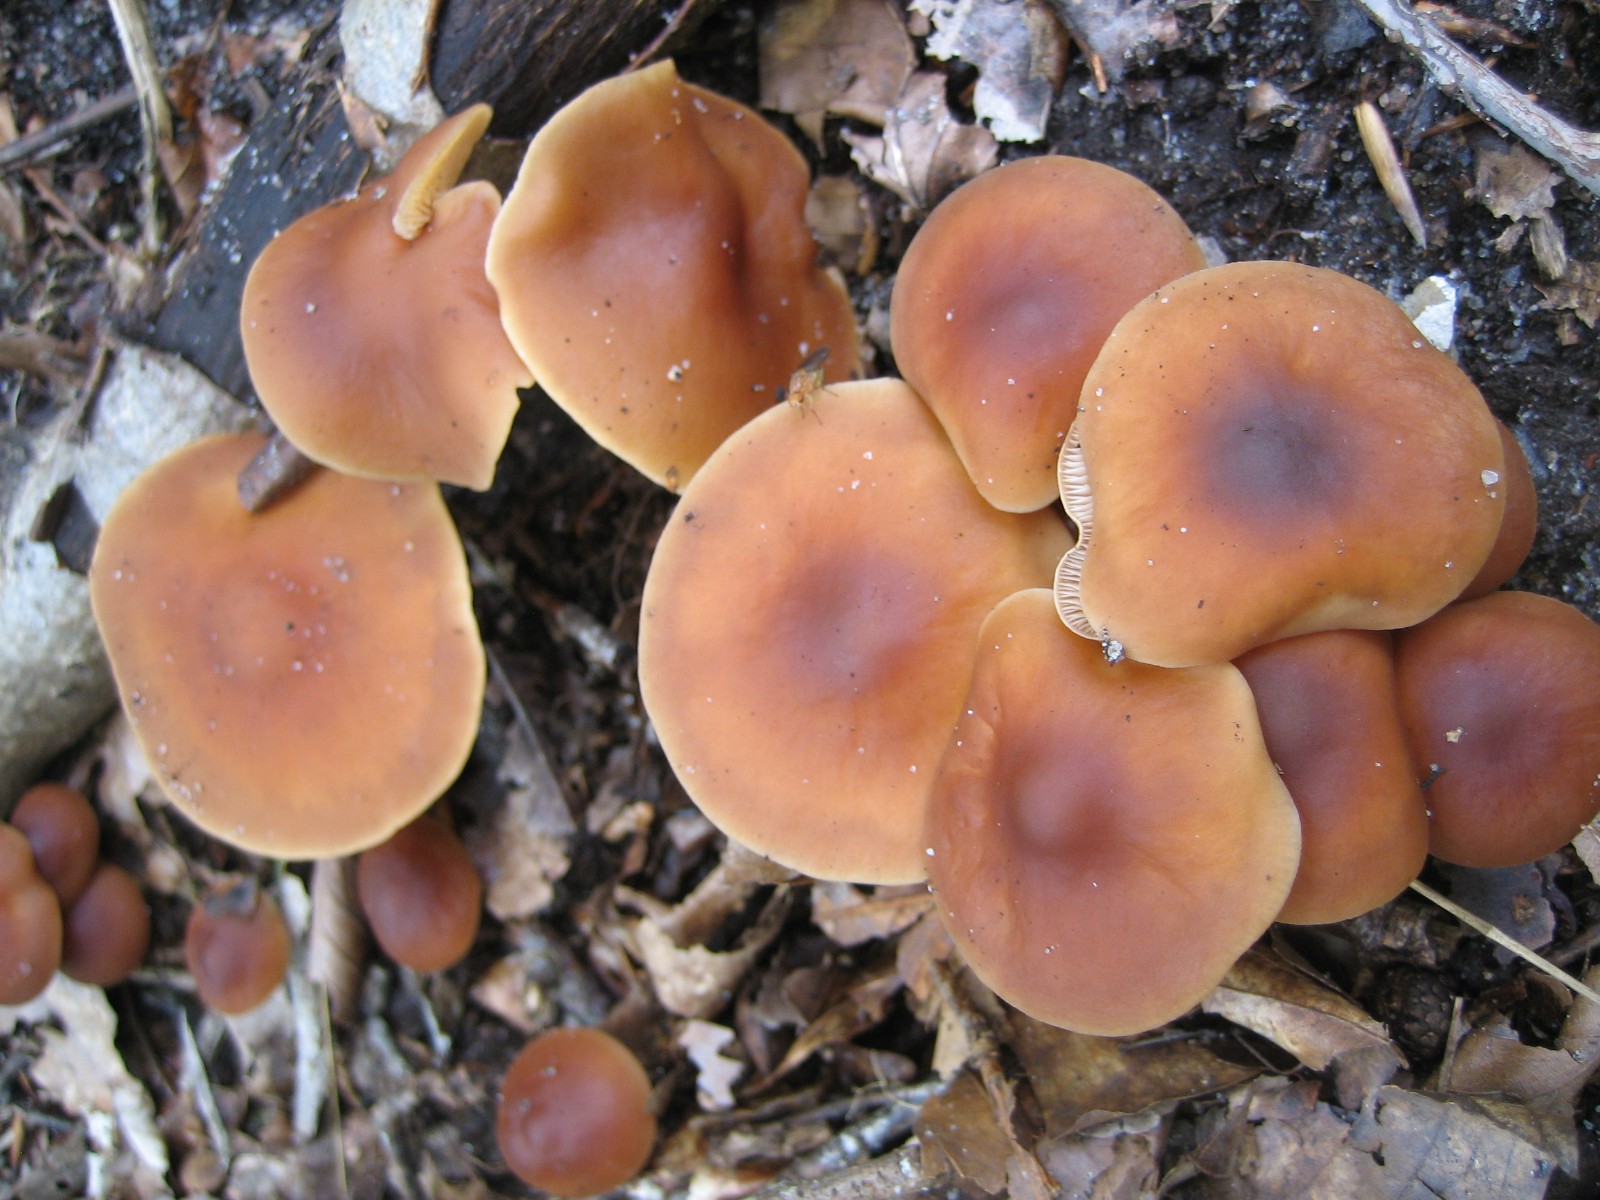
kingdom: Fungi
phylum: Basidiomycota
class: Agaricomycetes
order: Agaricales
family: Omphalotaceae
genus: Gymnopus
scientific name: Gymnopus ocior
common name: mørk fladhat
